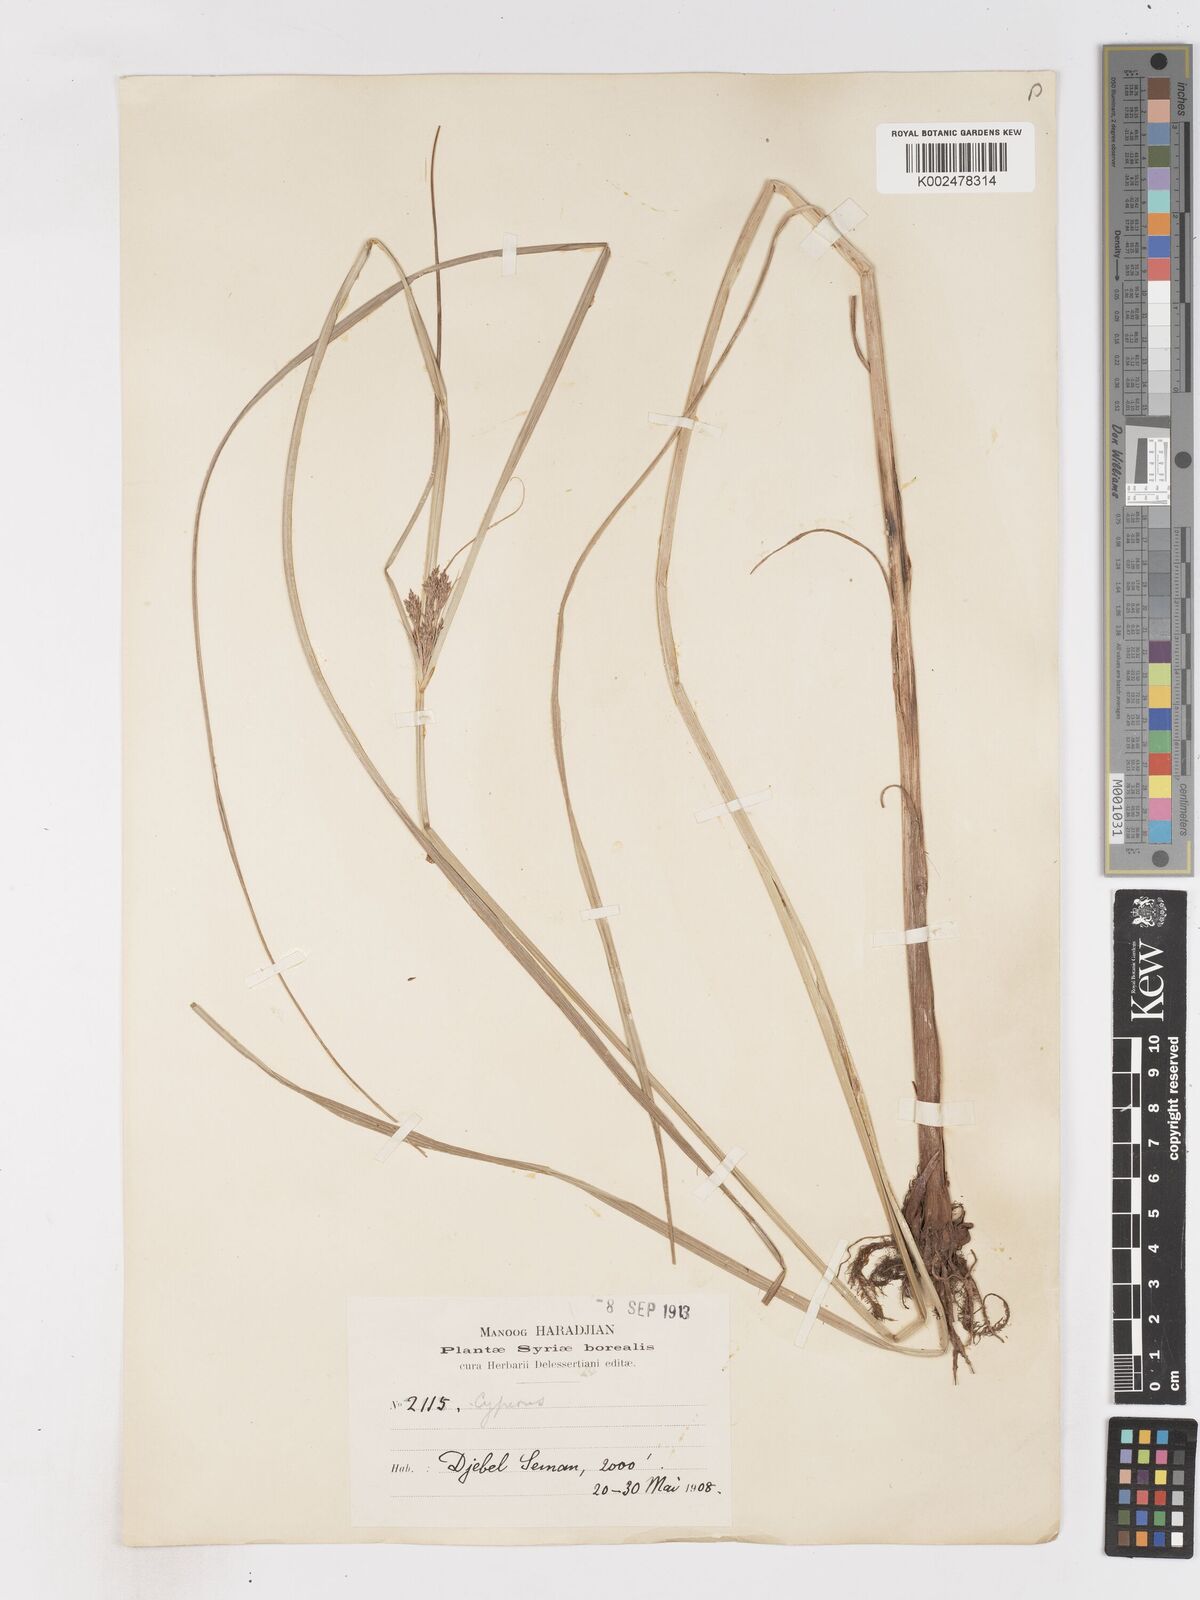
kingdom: Plantae
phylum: Tracheophyta
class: Liliopsida
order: Poales
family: Cyperaceae
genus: Cyperus
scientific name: Cyperus glaber
